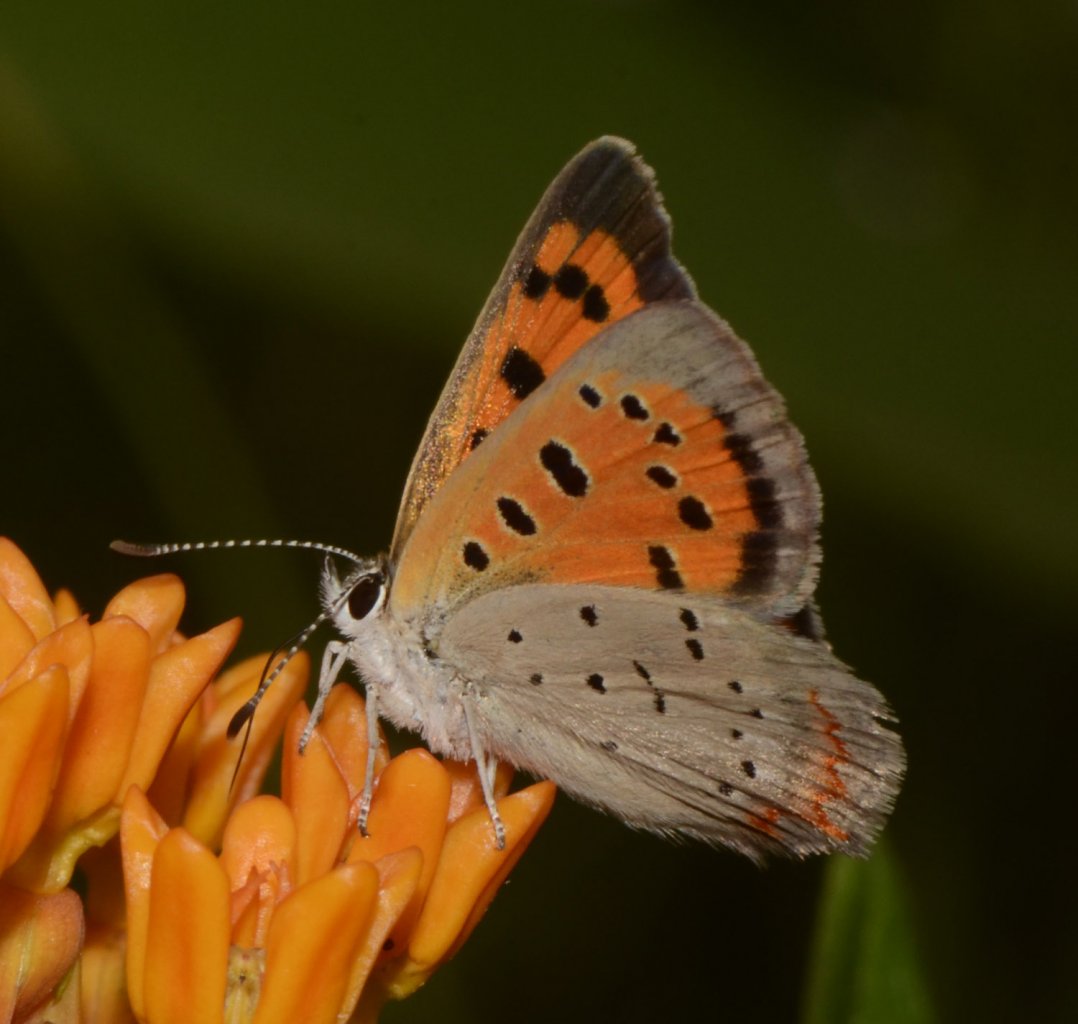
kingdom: Animalia
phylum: Arthropoda
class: Insecta
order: Lepidoptera
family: Lycaenidae
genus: Lycaena
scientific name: Lycaena phlaeas
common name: American Copper
